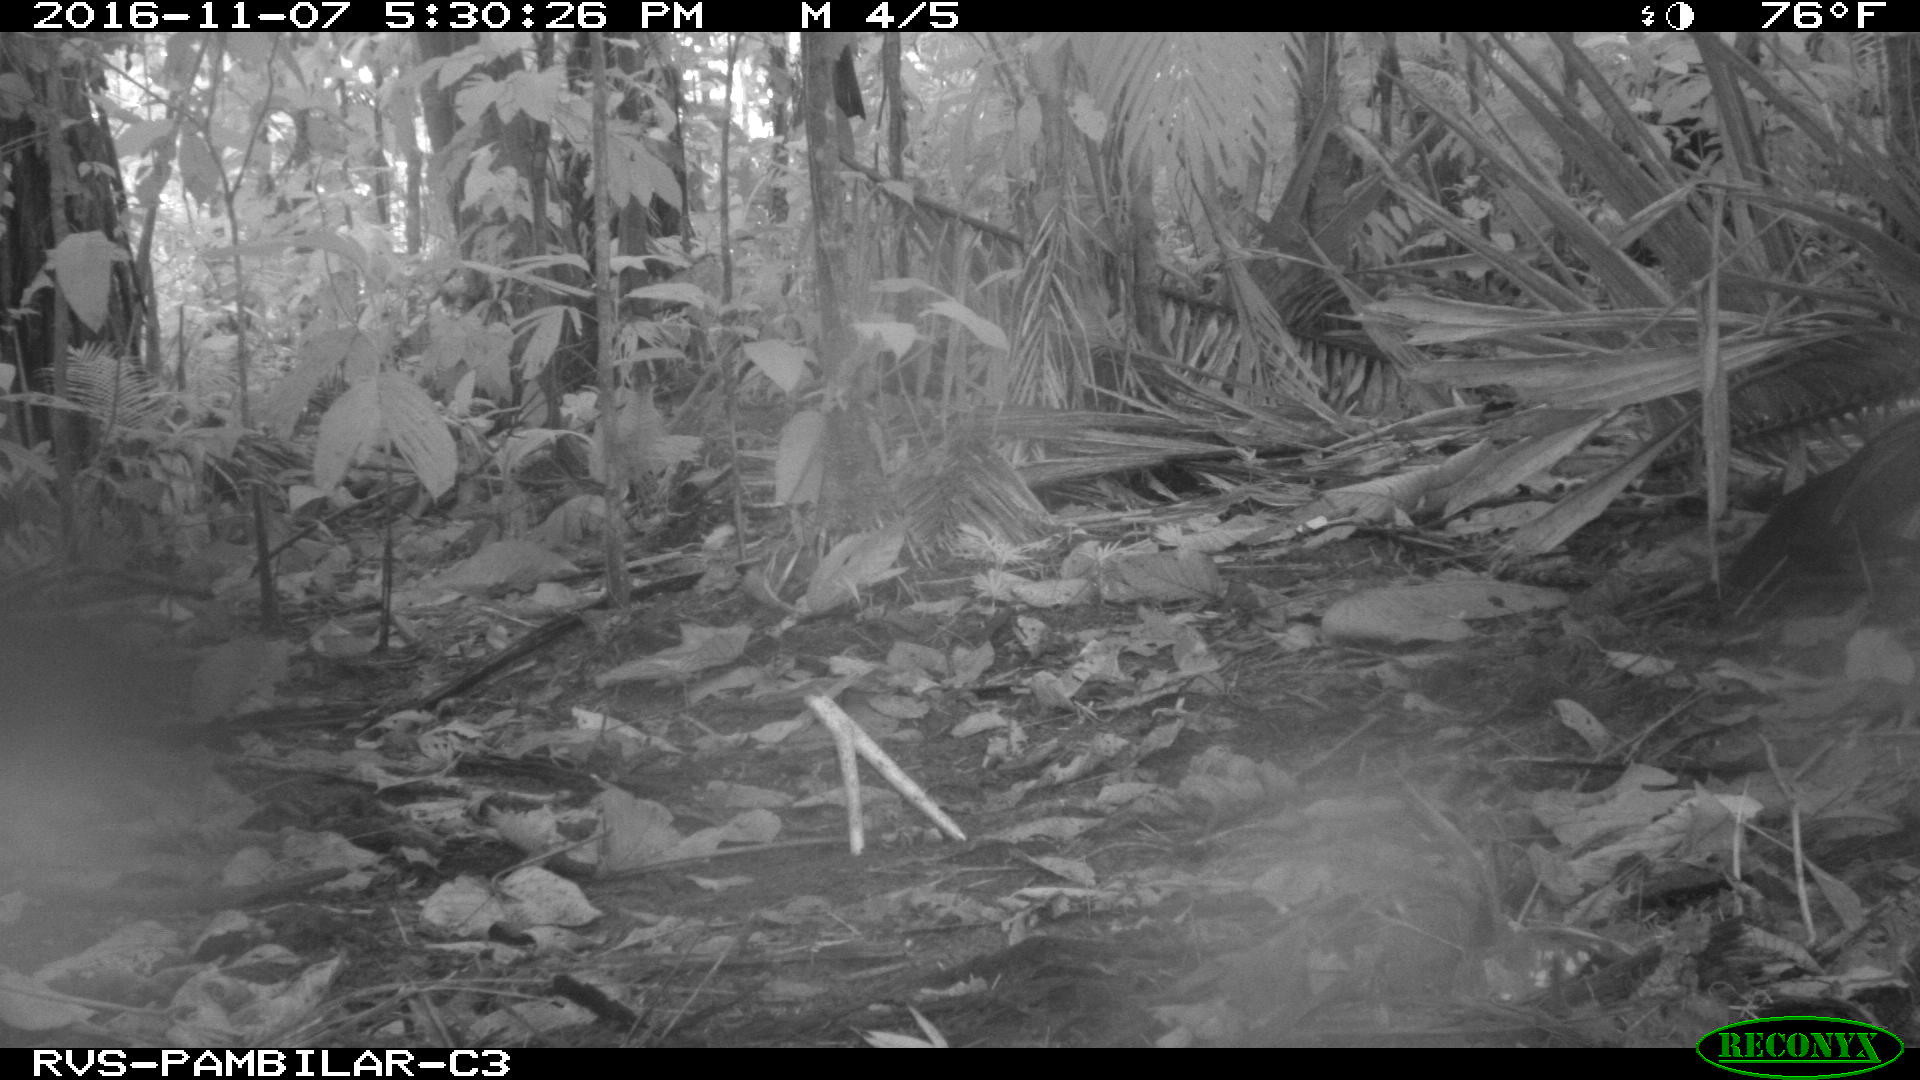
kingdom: Animalia
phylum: Chordata
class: Mammalia
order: Rodentia
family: Dasyproctidae
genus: Dasyprocta
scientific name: Dasyprocta punctata
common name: Central american agouti
